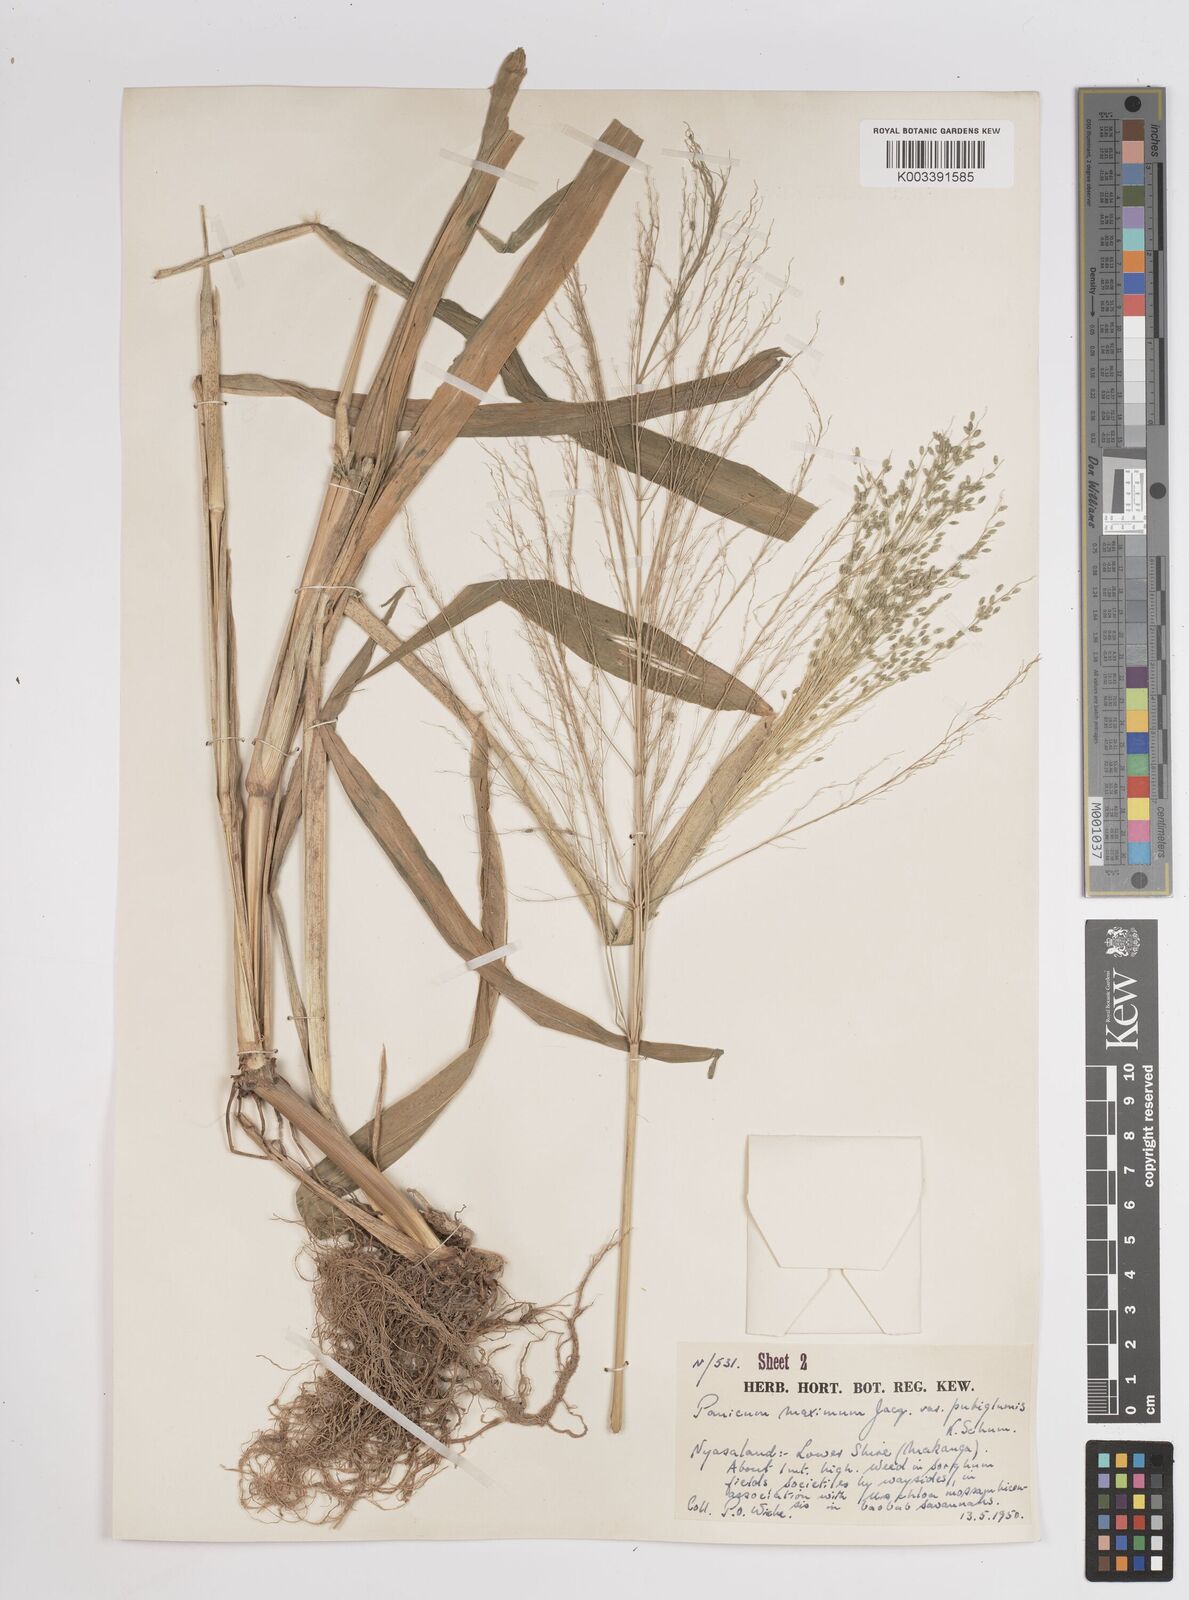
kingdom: Plantae
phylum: Tracheophyta
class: Liliopsida
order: Poales
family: Poaceae
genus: Megathyrsus
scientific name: Megathyrsus maximus
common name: Guineagrass
